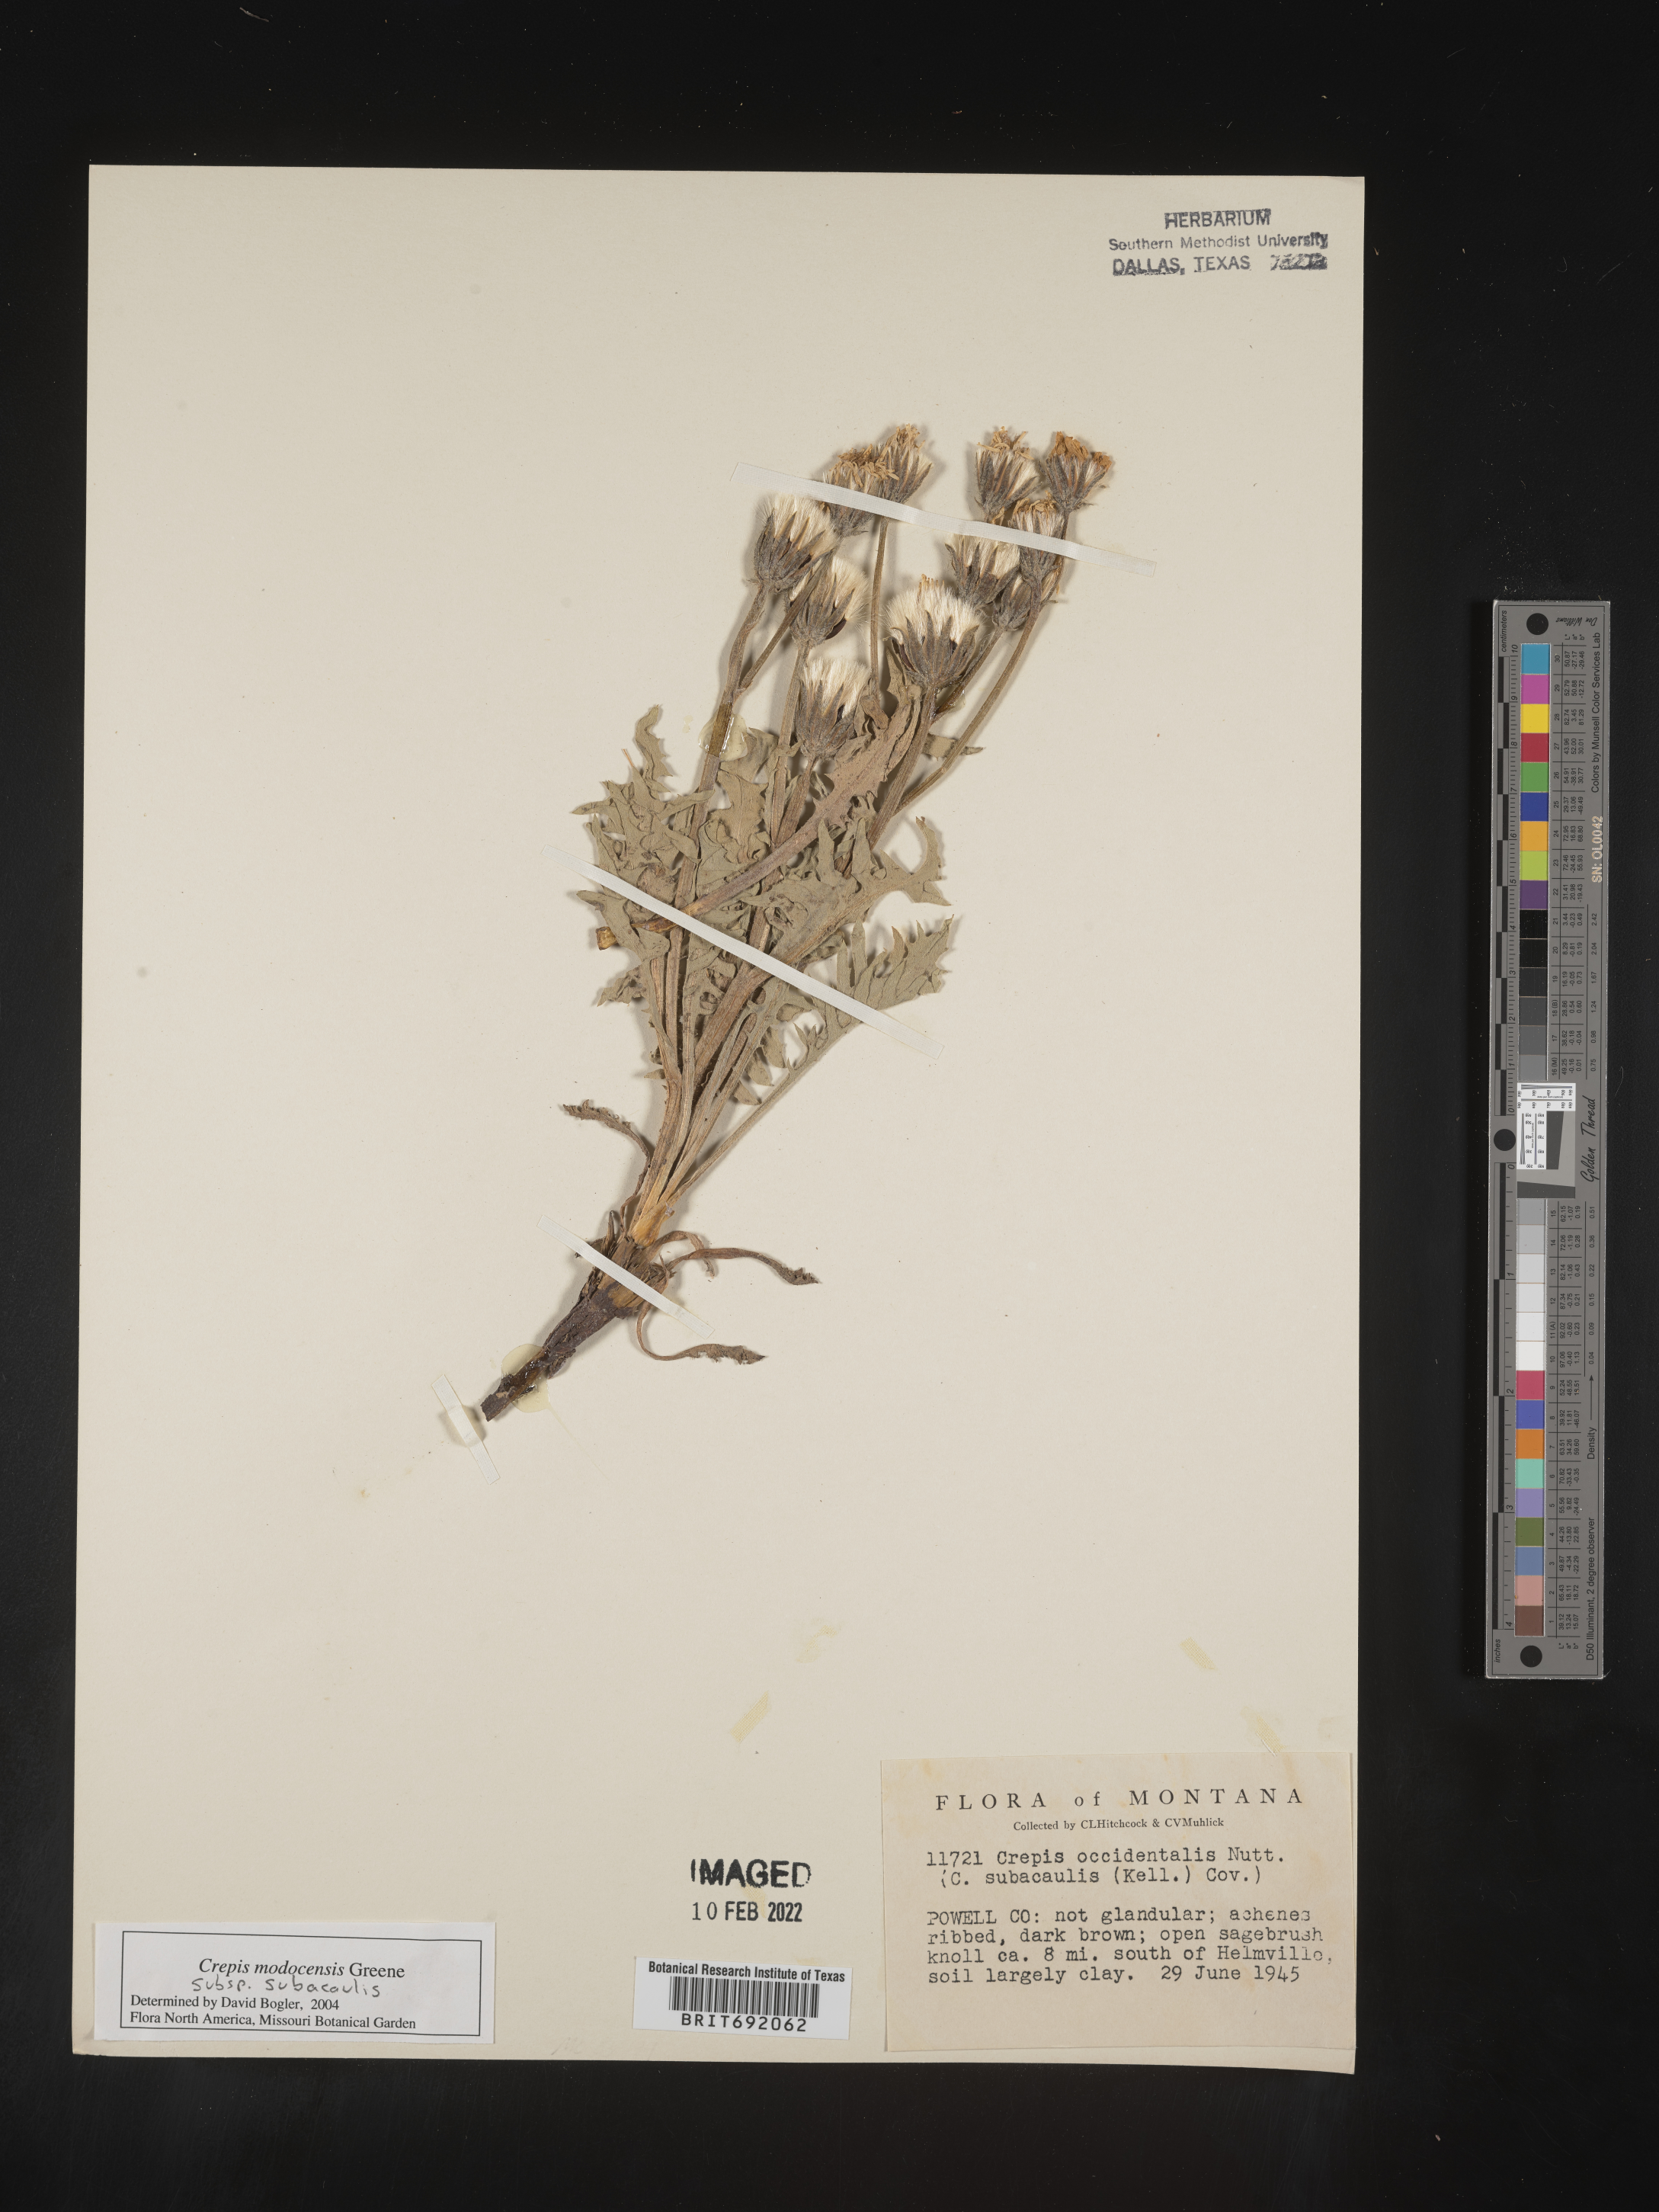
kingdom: Plantae
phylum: Tracheophyta
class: Magnoliopsida
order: Asterales
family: Asteraceae
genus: Crepis
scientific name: Crepis
